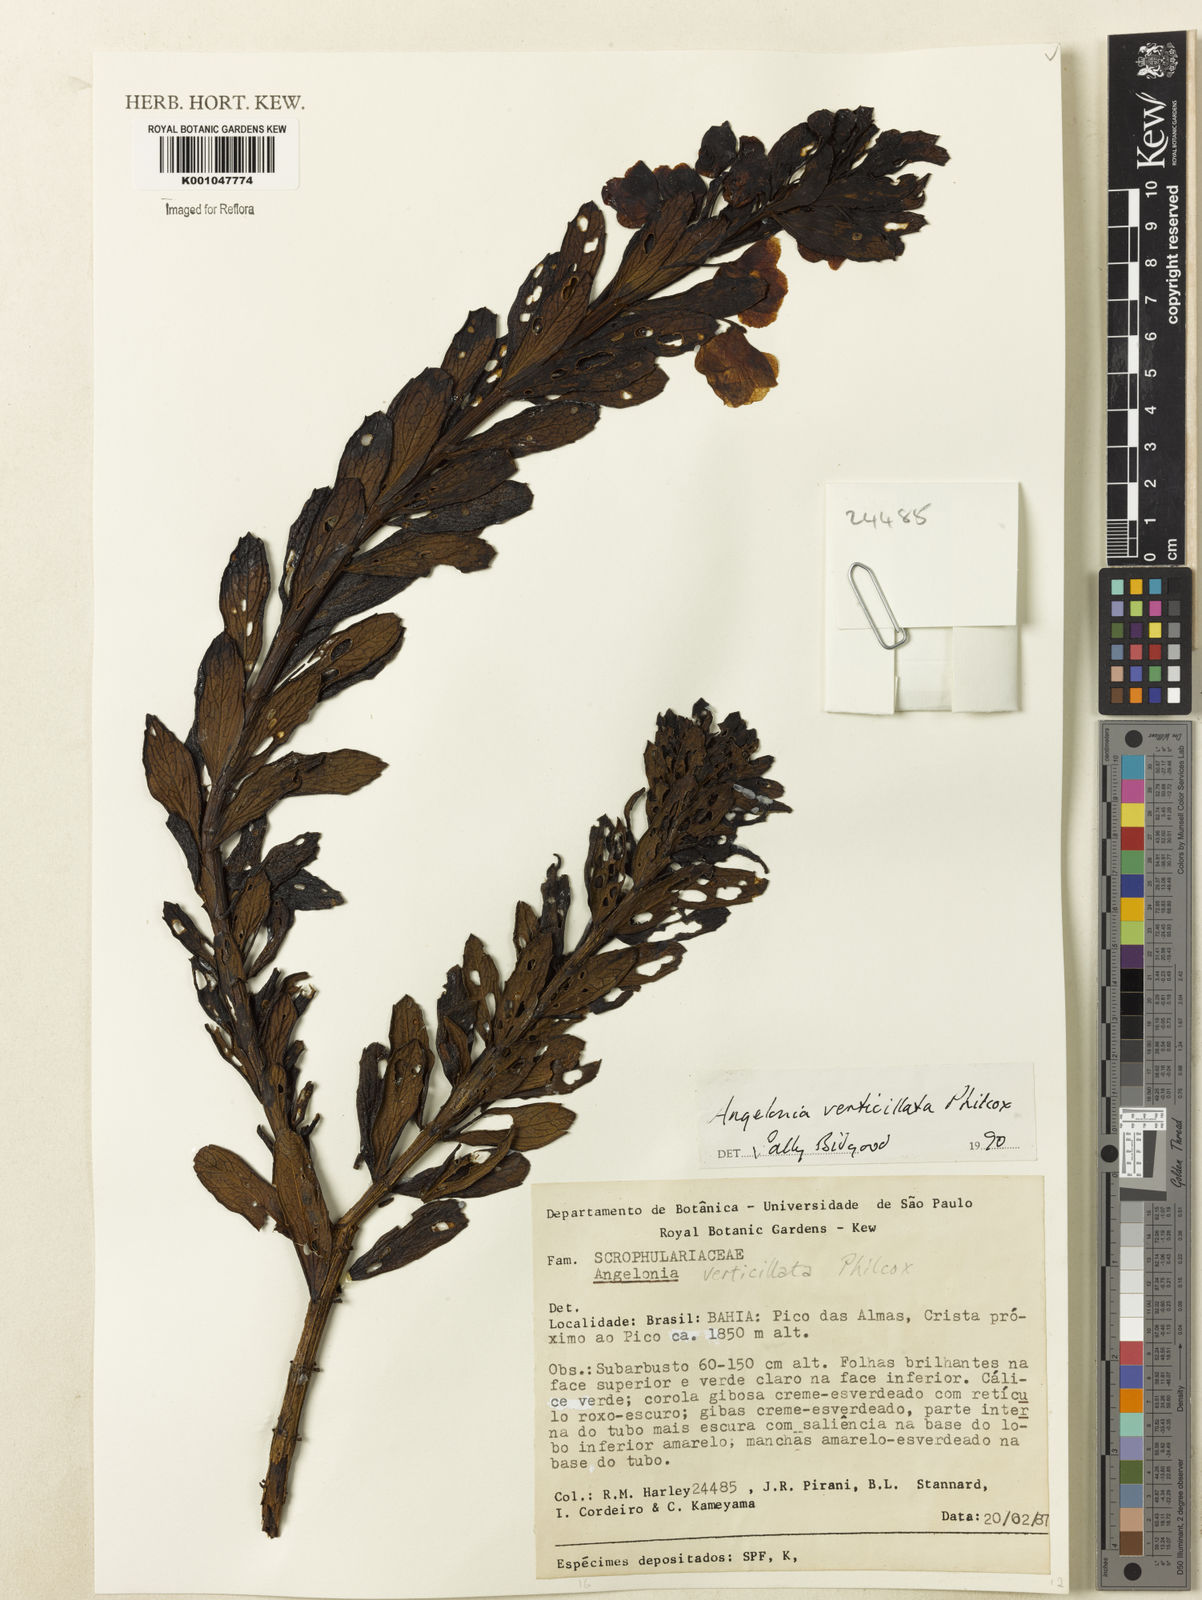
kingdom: Plantae
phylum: Tracheophyta
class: Magnoliopsida
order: Lamiales
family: Plantaginaceae
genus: Angelonia
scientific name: Angelonia verticillata
